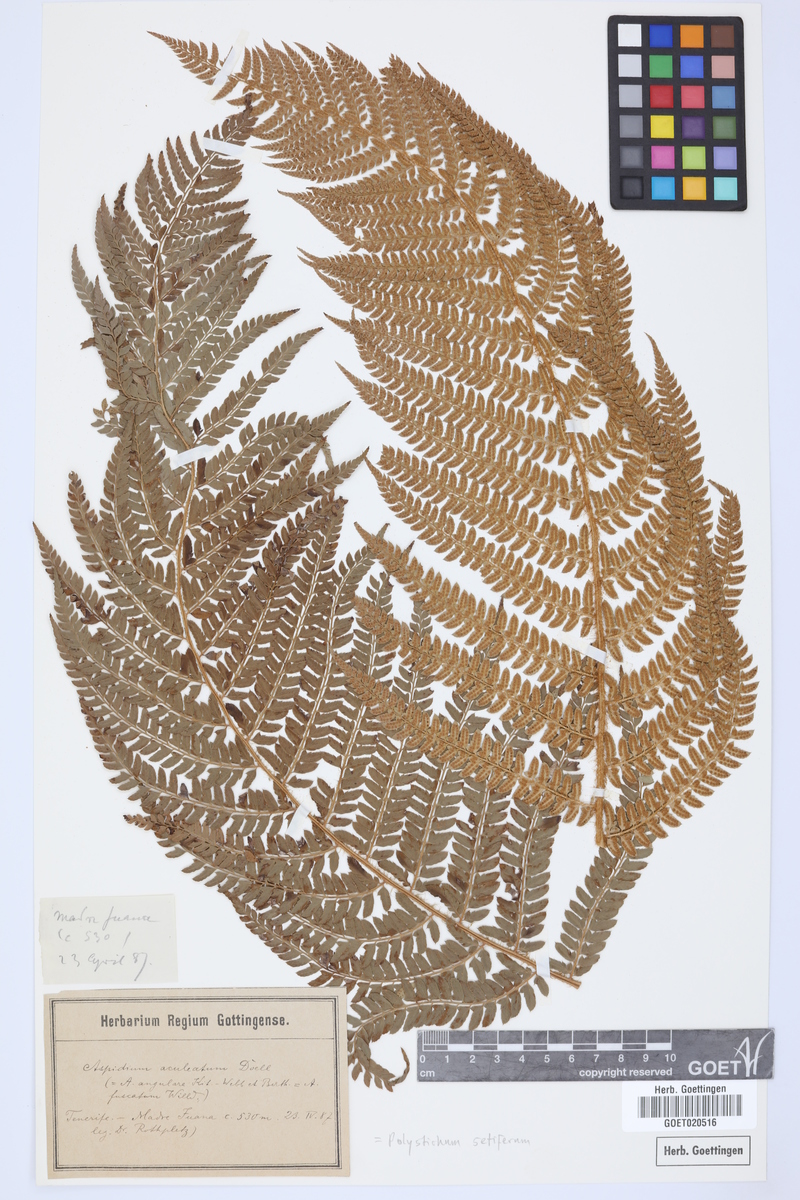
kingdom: Plantae
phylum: Tracheophyta
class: Polypodiopsida
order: Polypodiales
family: Dryopteridaceae
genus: Polystichum
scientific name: Polystichum setiferum
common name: Soft shield-fern
